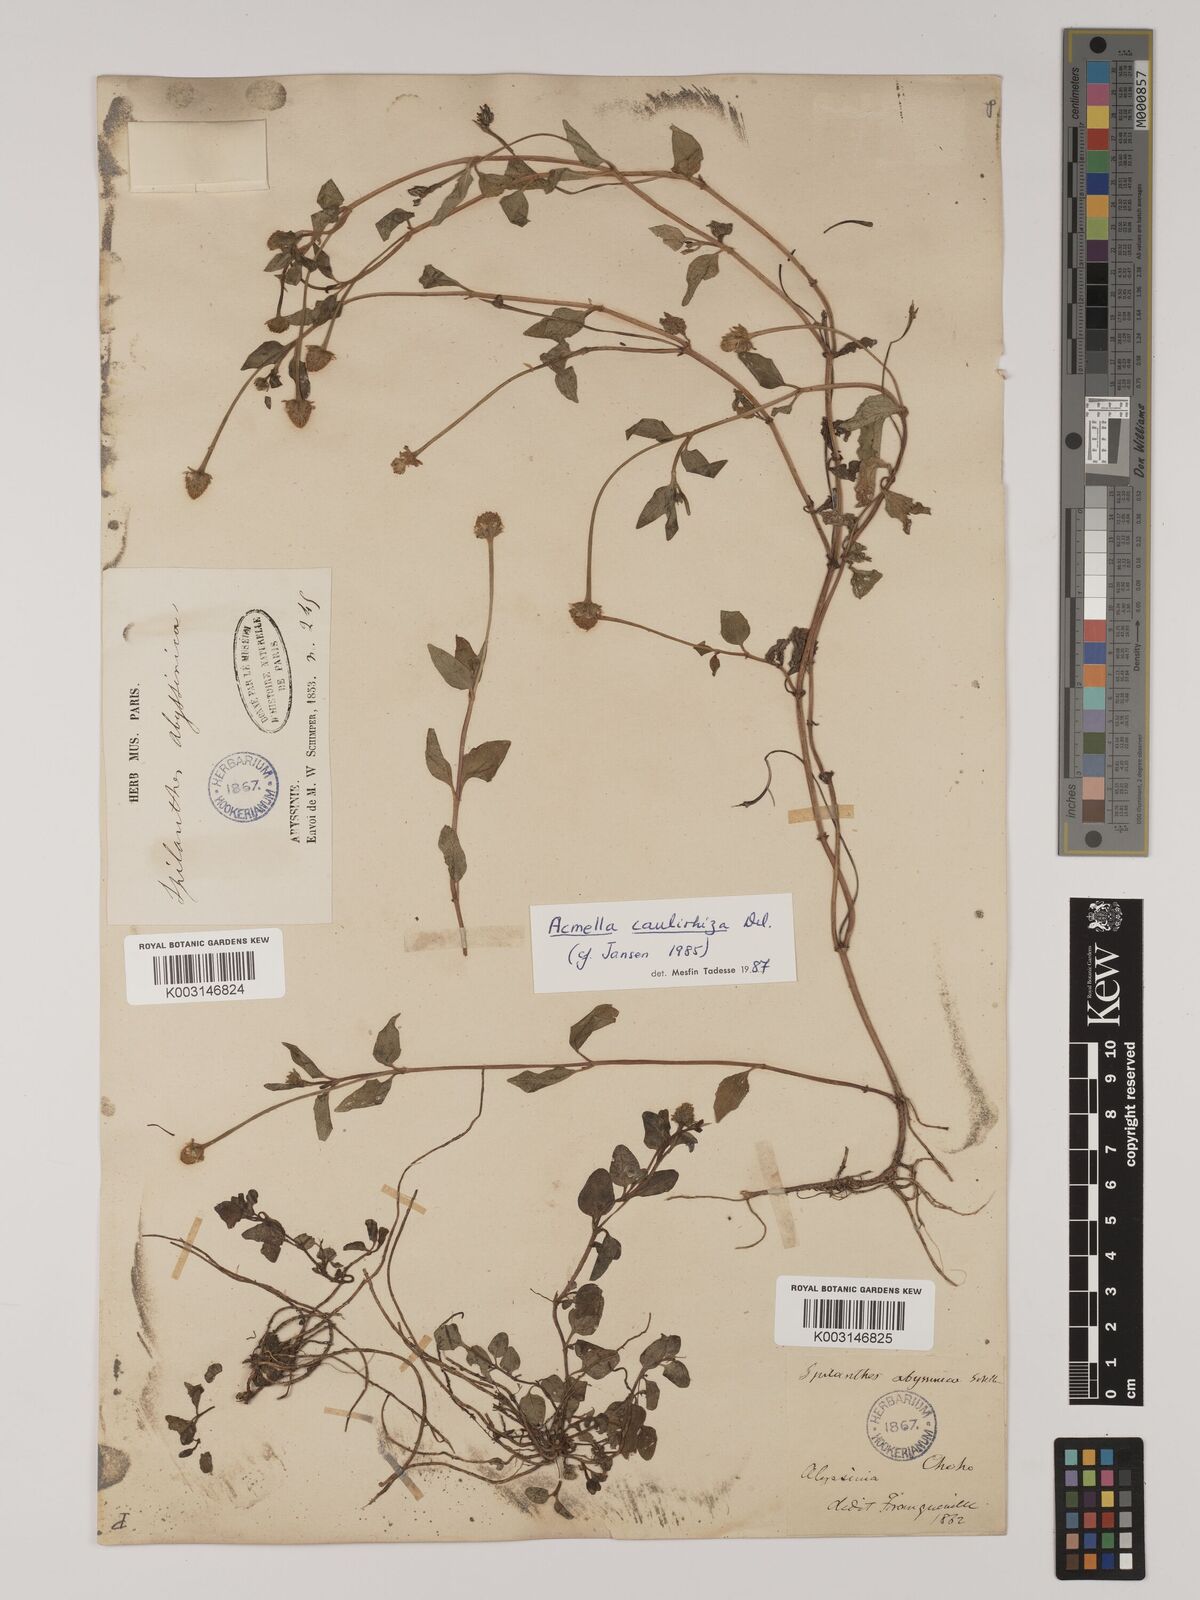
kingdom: Plantae
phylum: Tracheophyta
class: Magnoliopsida
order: Asterales
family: Asteraceae
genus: Acmella
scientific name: Acmella caulirhiza
